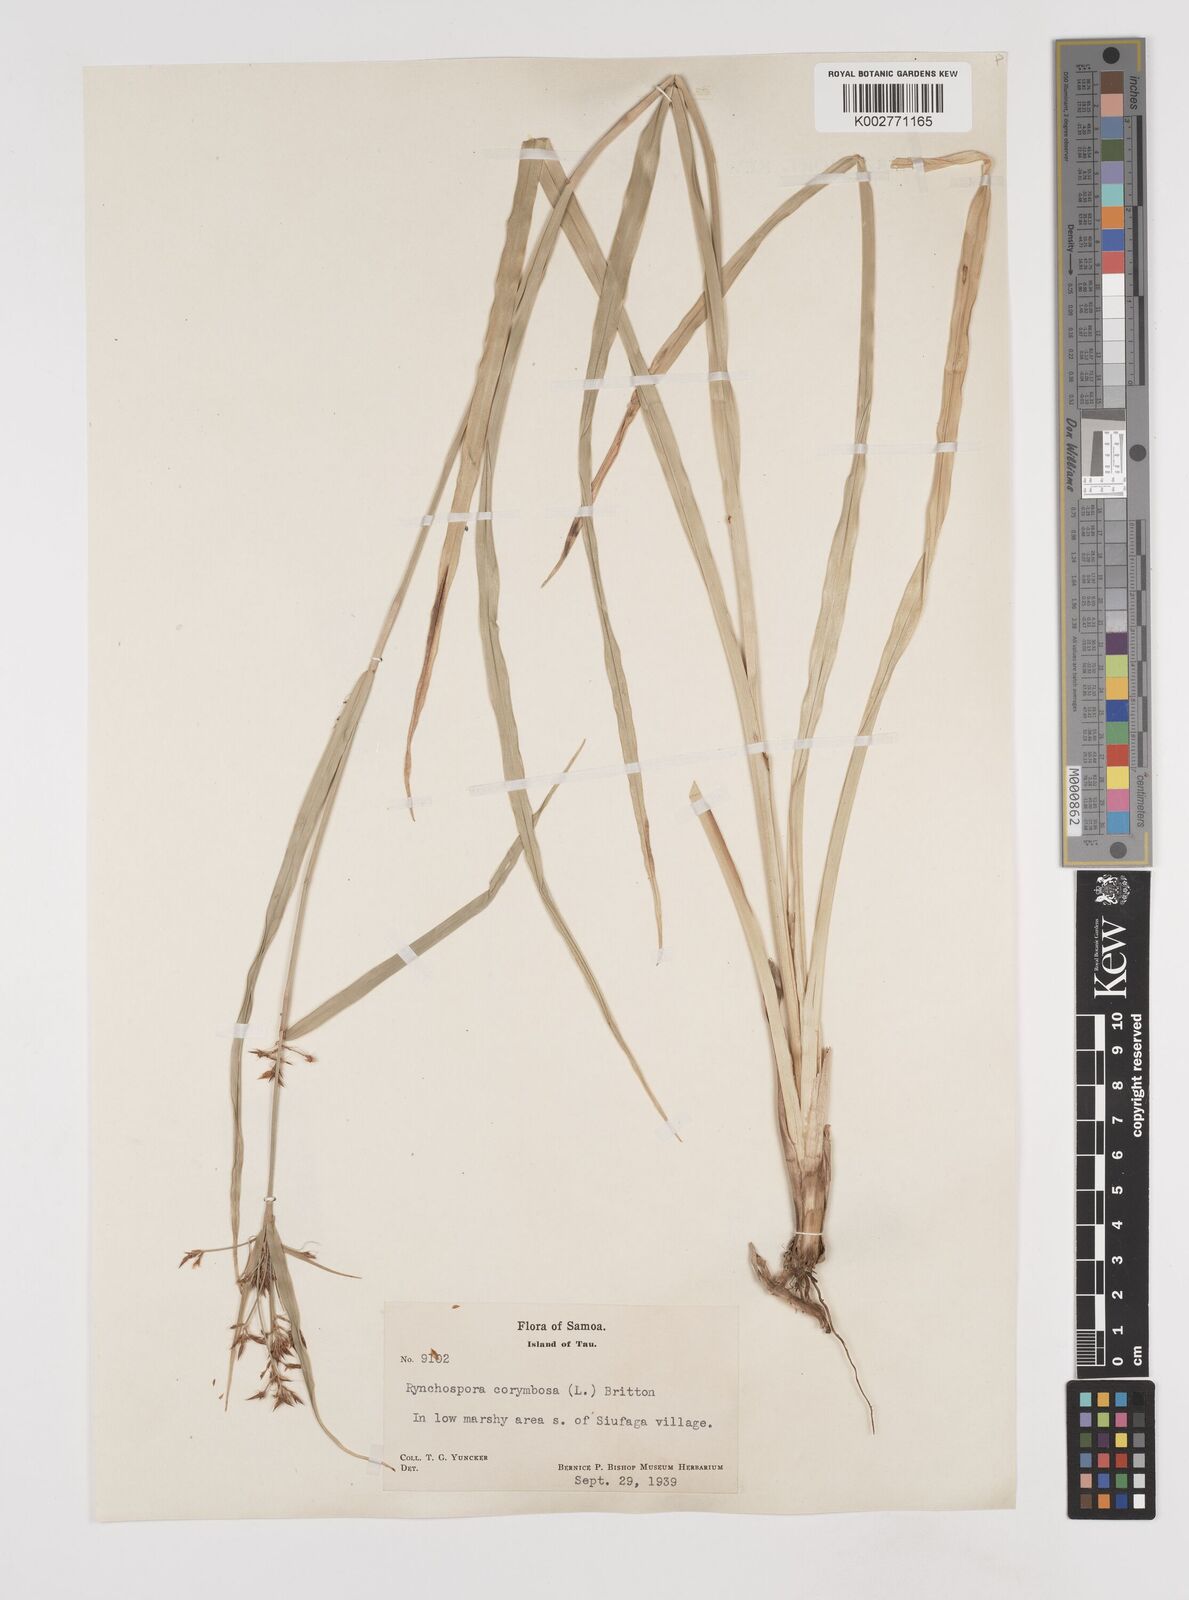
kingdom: Plantae
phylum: Tracheophyta
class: Liliopsida
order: Poales
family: Cyperaceae
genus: Rhynchospora
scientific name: Rhynchospora corymbosa
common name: Golden beak sedge
